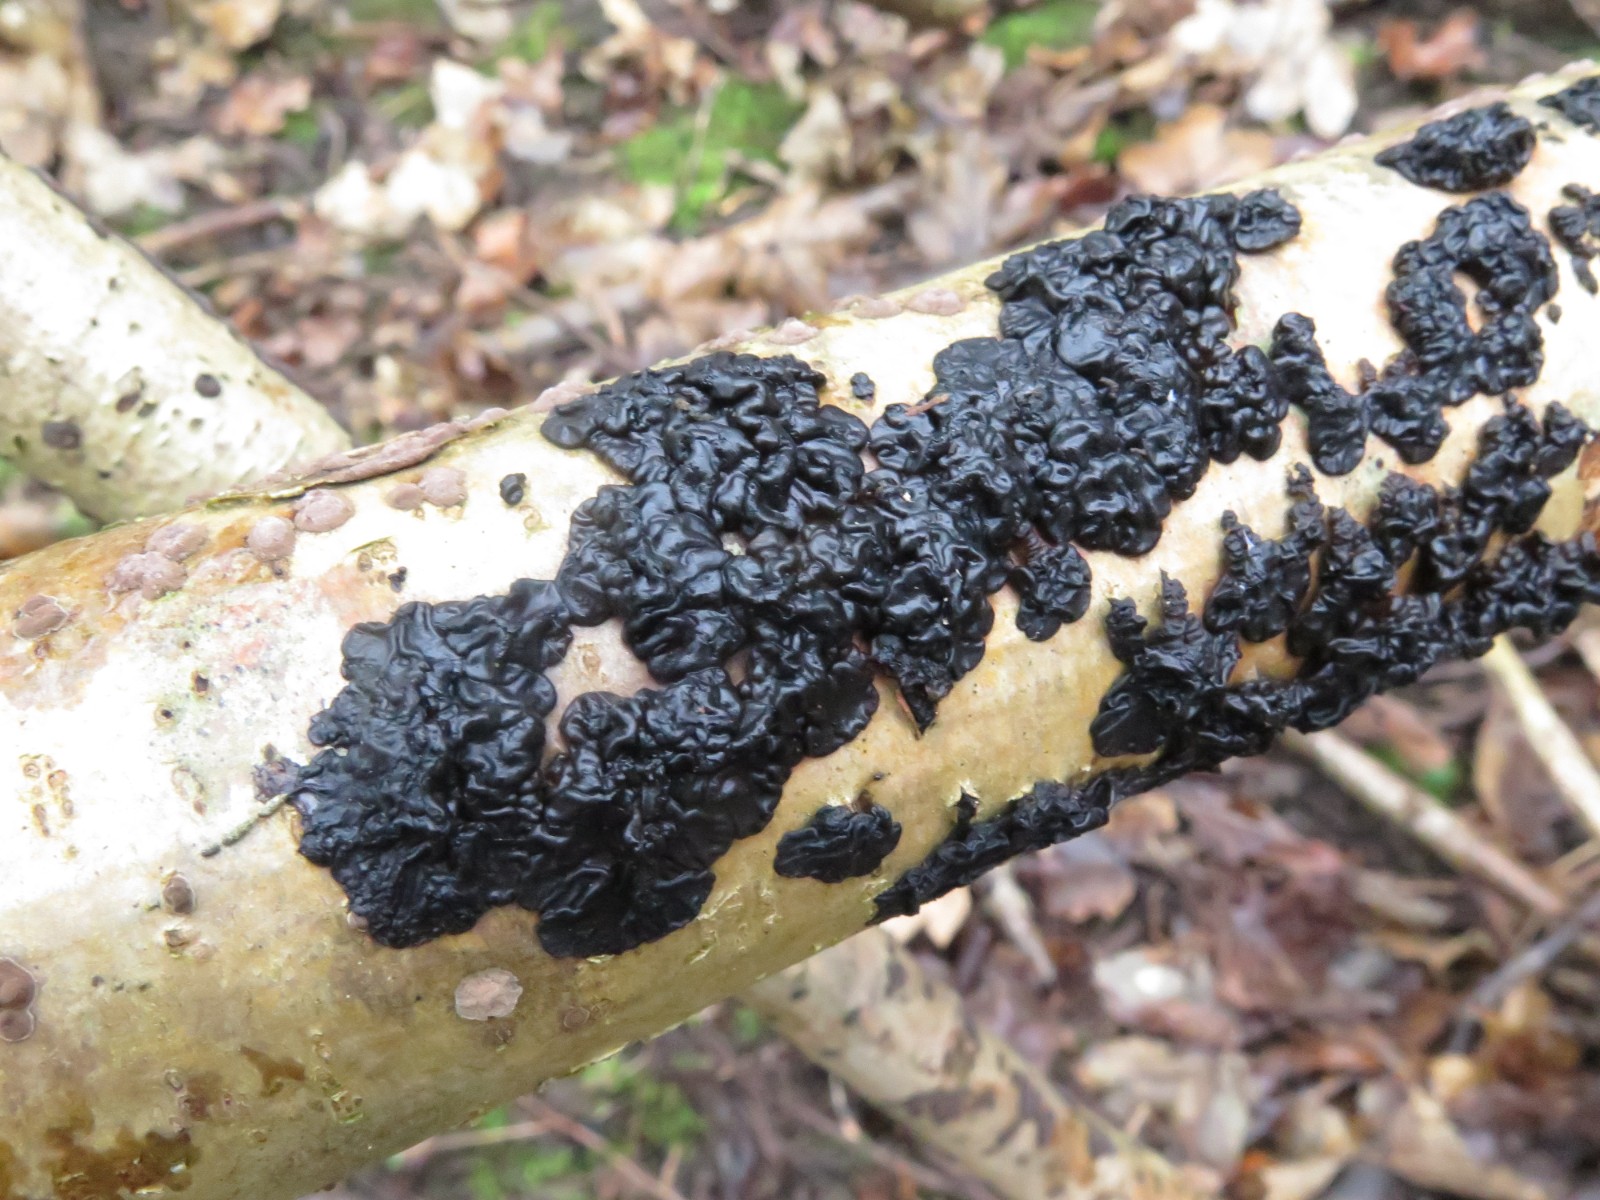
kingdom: Fungi
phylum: Basidiomycota
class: Agaricomycetes
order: Auriculariales
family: Auriculariaceae
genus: Exidia
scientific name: Exidia nigricans
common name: almindelig bævretop
